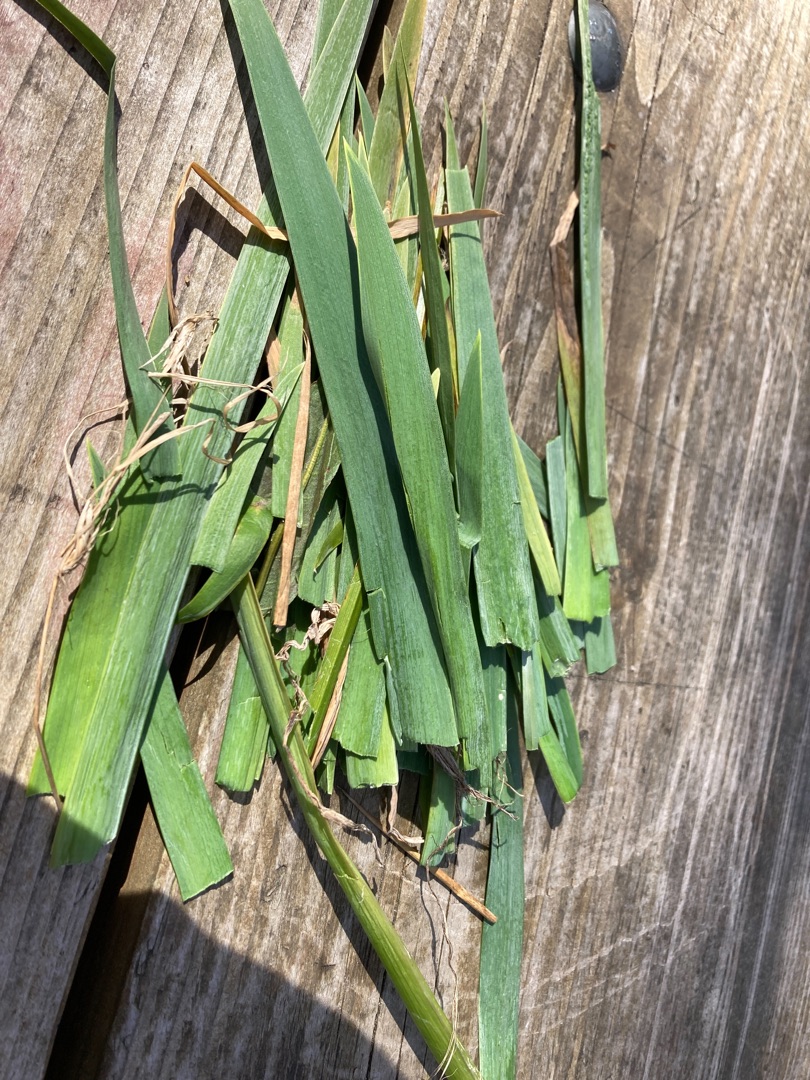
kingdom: Plantae
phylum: Tracheophyta
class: Liliopsida
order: Asparagales
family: Iridaceae
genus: Iris
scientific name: Iris pseudacorus
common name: Gul iris
